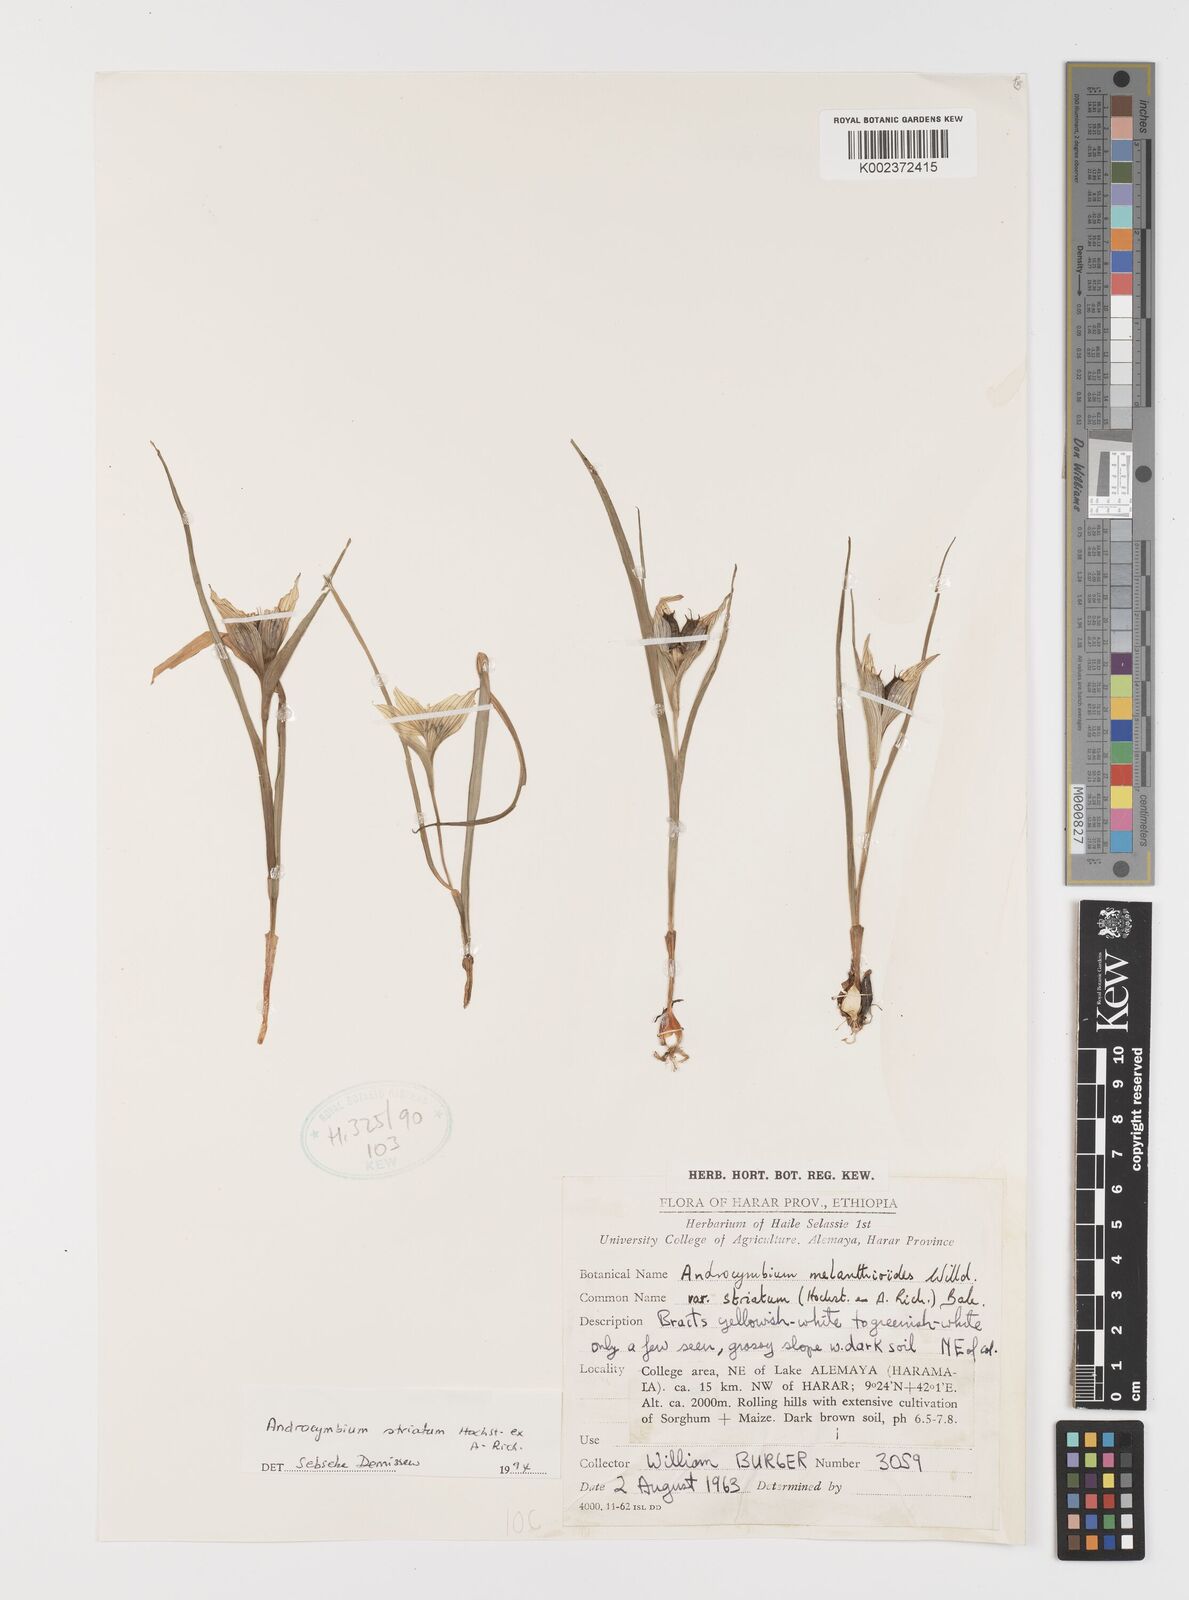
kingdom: Plantae
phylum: Tracheophyta
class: Liliopsida
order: Liliales
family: Colchicaceae
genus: Colchicum
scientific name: Colchicum striatum
